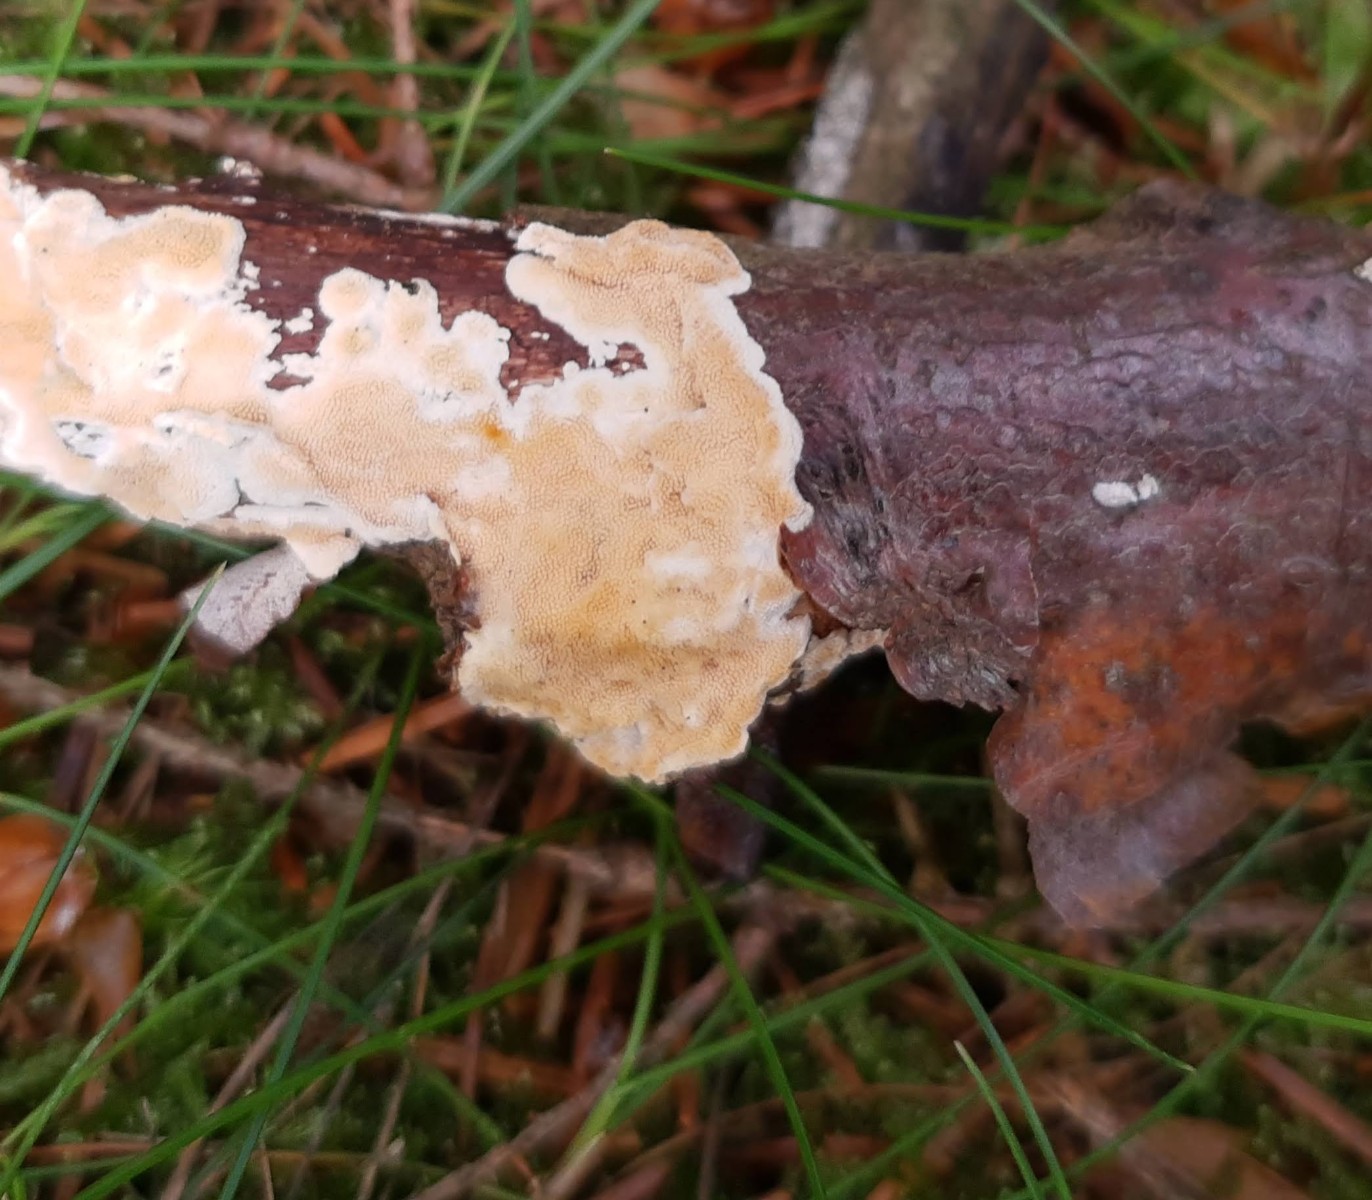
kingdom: Fungi
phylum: Basidiomycota
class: Agaricomycetes
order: Polyporales
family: Steccherinaceae
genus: Steccherinum
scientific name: Steccherinum ochraceum
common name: almindelig skønpig
